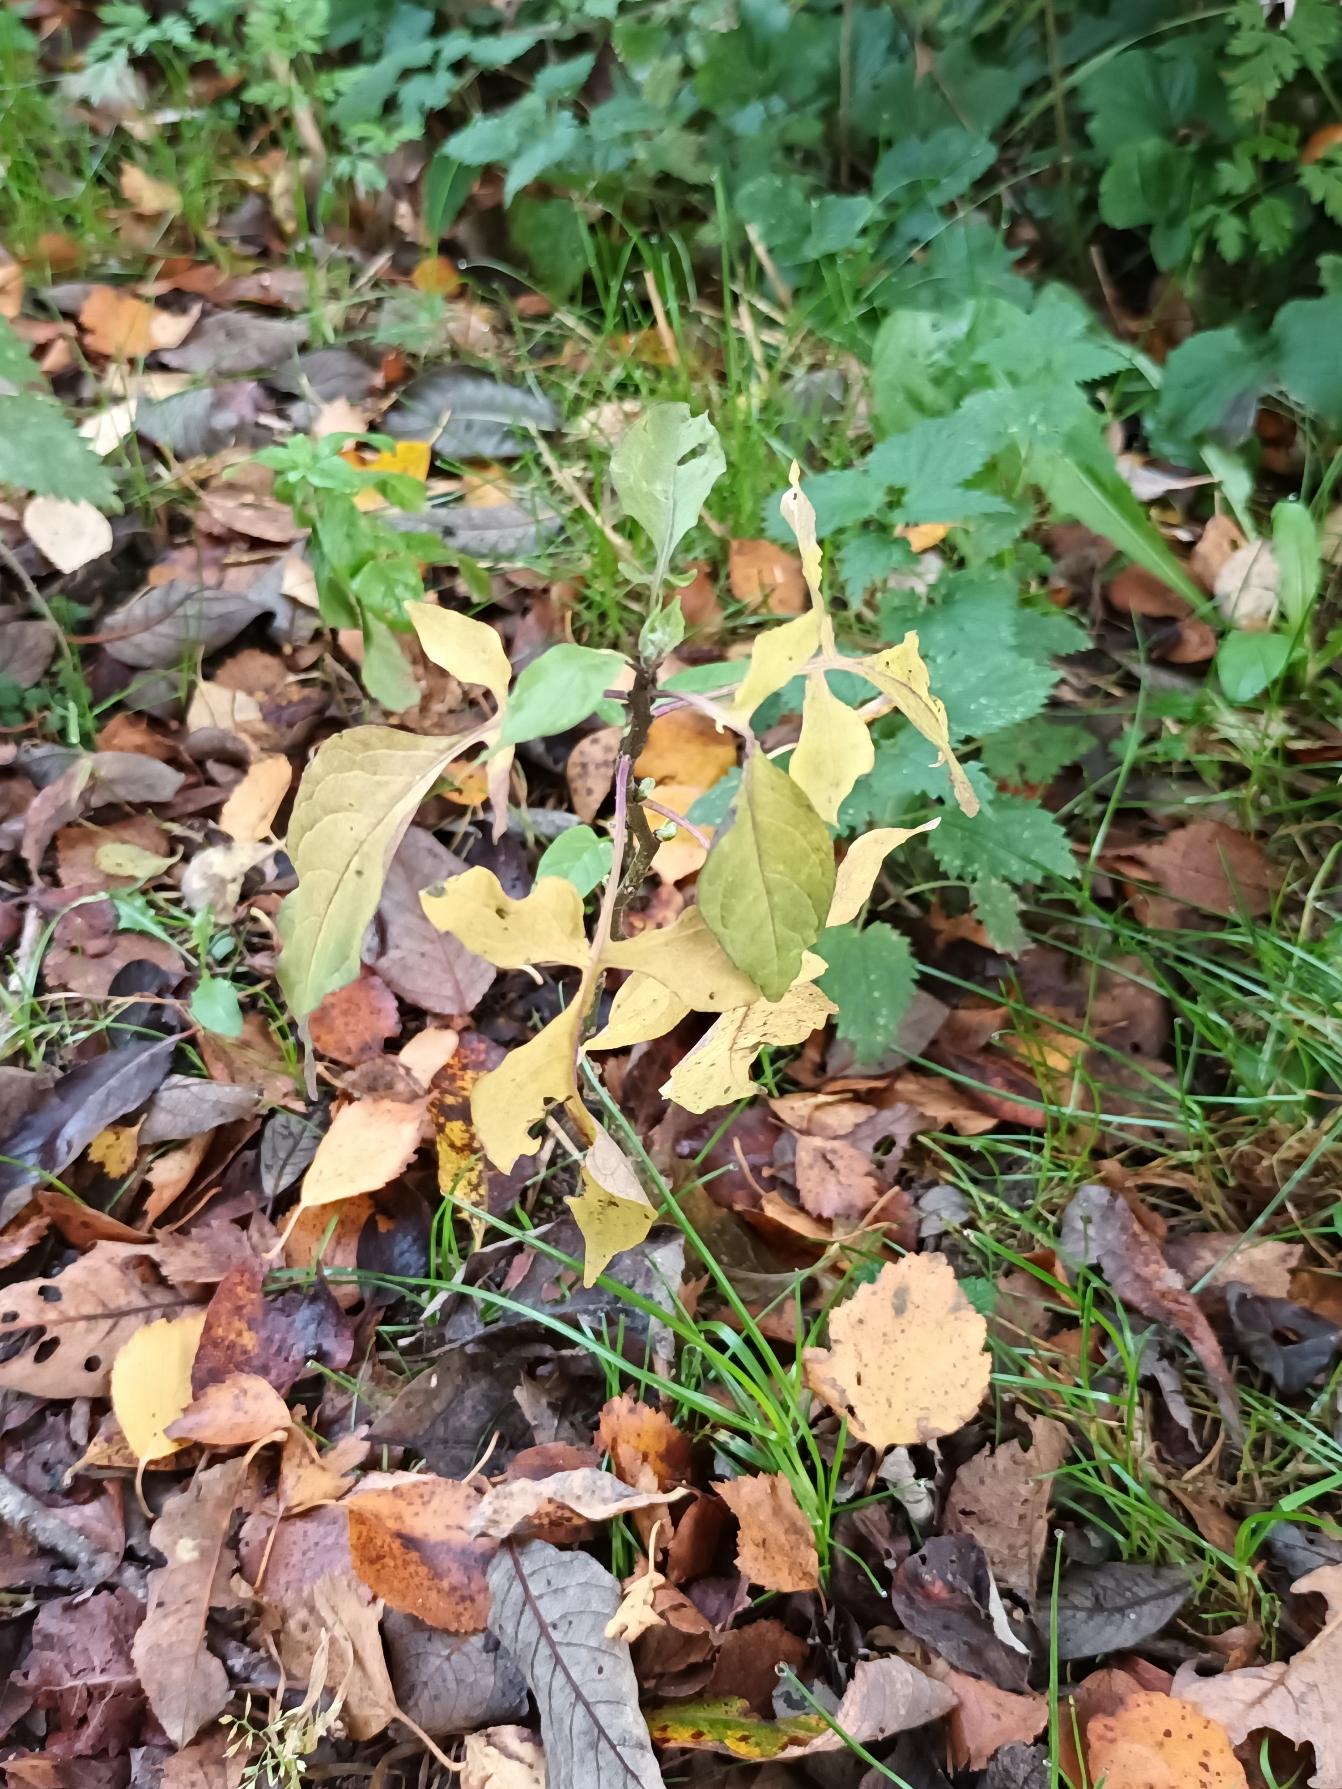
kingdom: Plantae
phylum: Tracheophyta
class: Magnoliopsida
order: Solanales
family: Solanaceae
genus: Solanum
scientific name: Solanum dulcamara
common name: Bittersød natskygge
